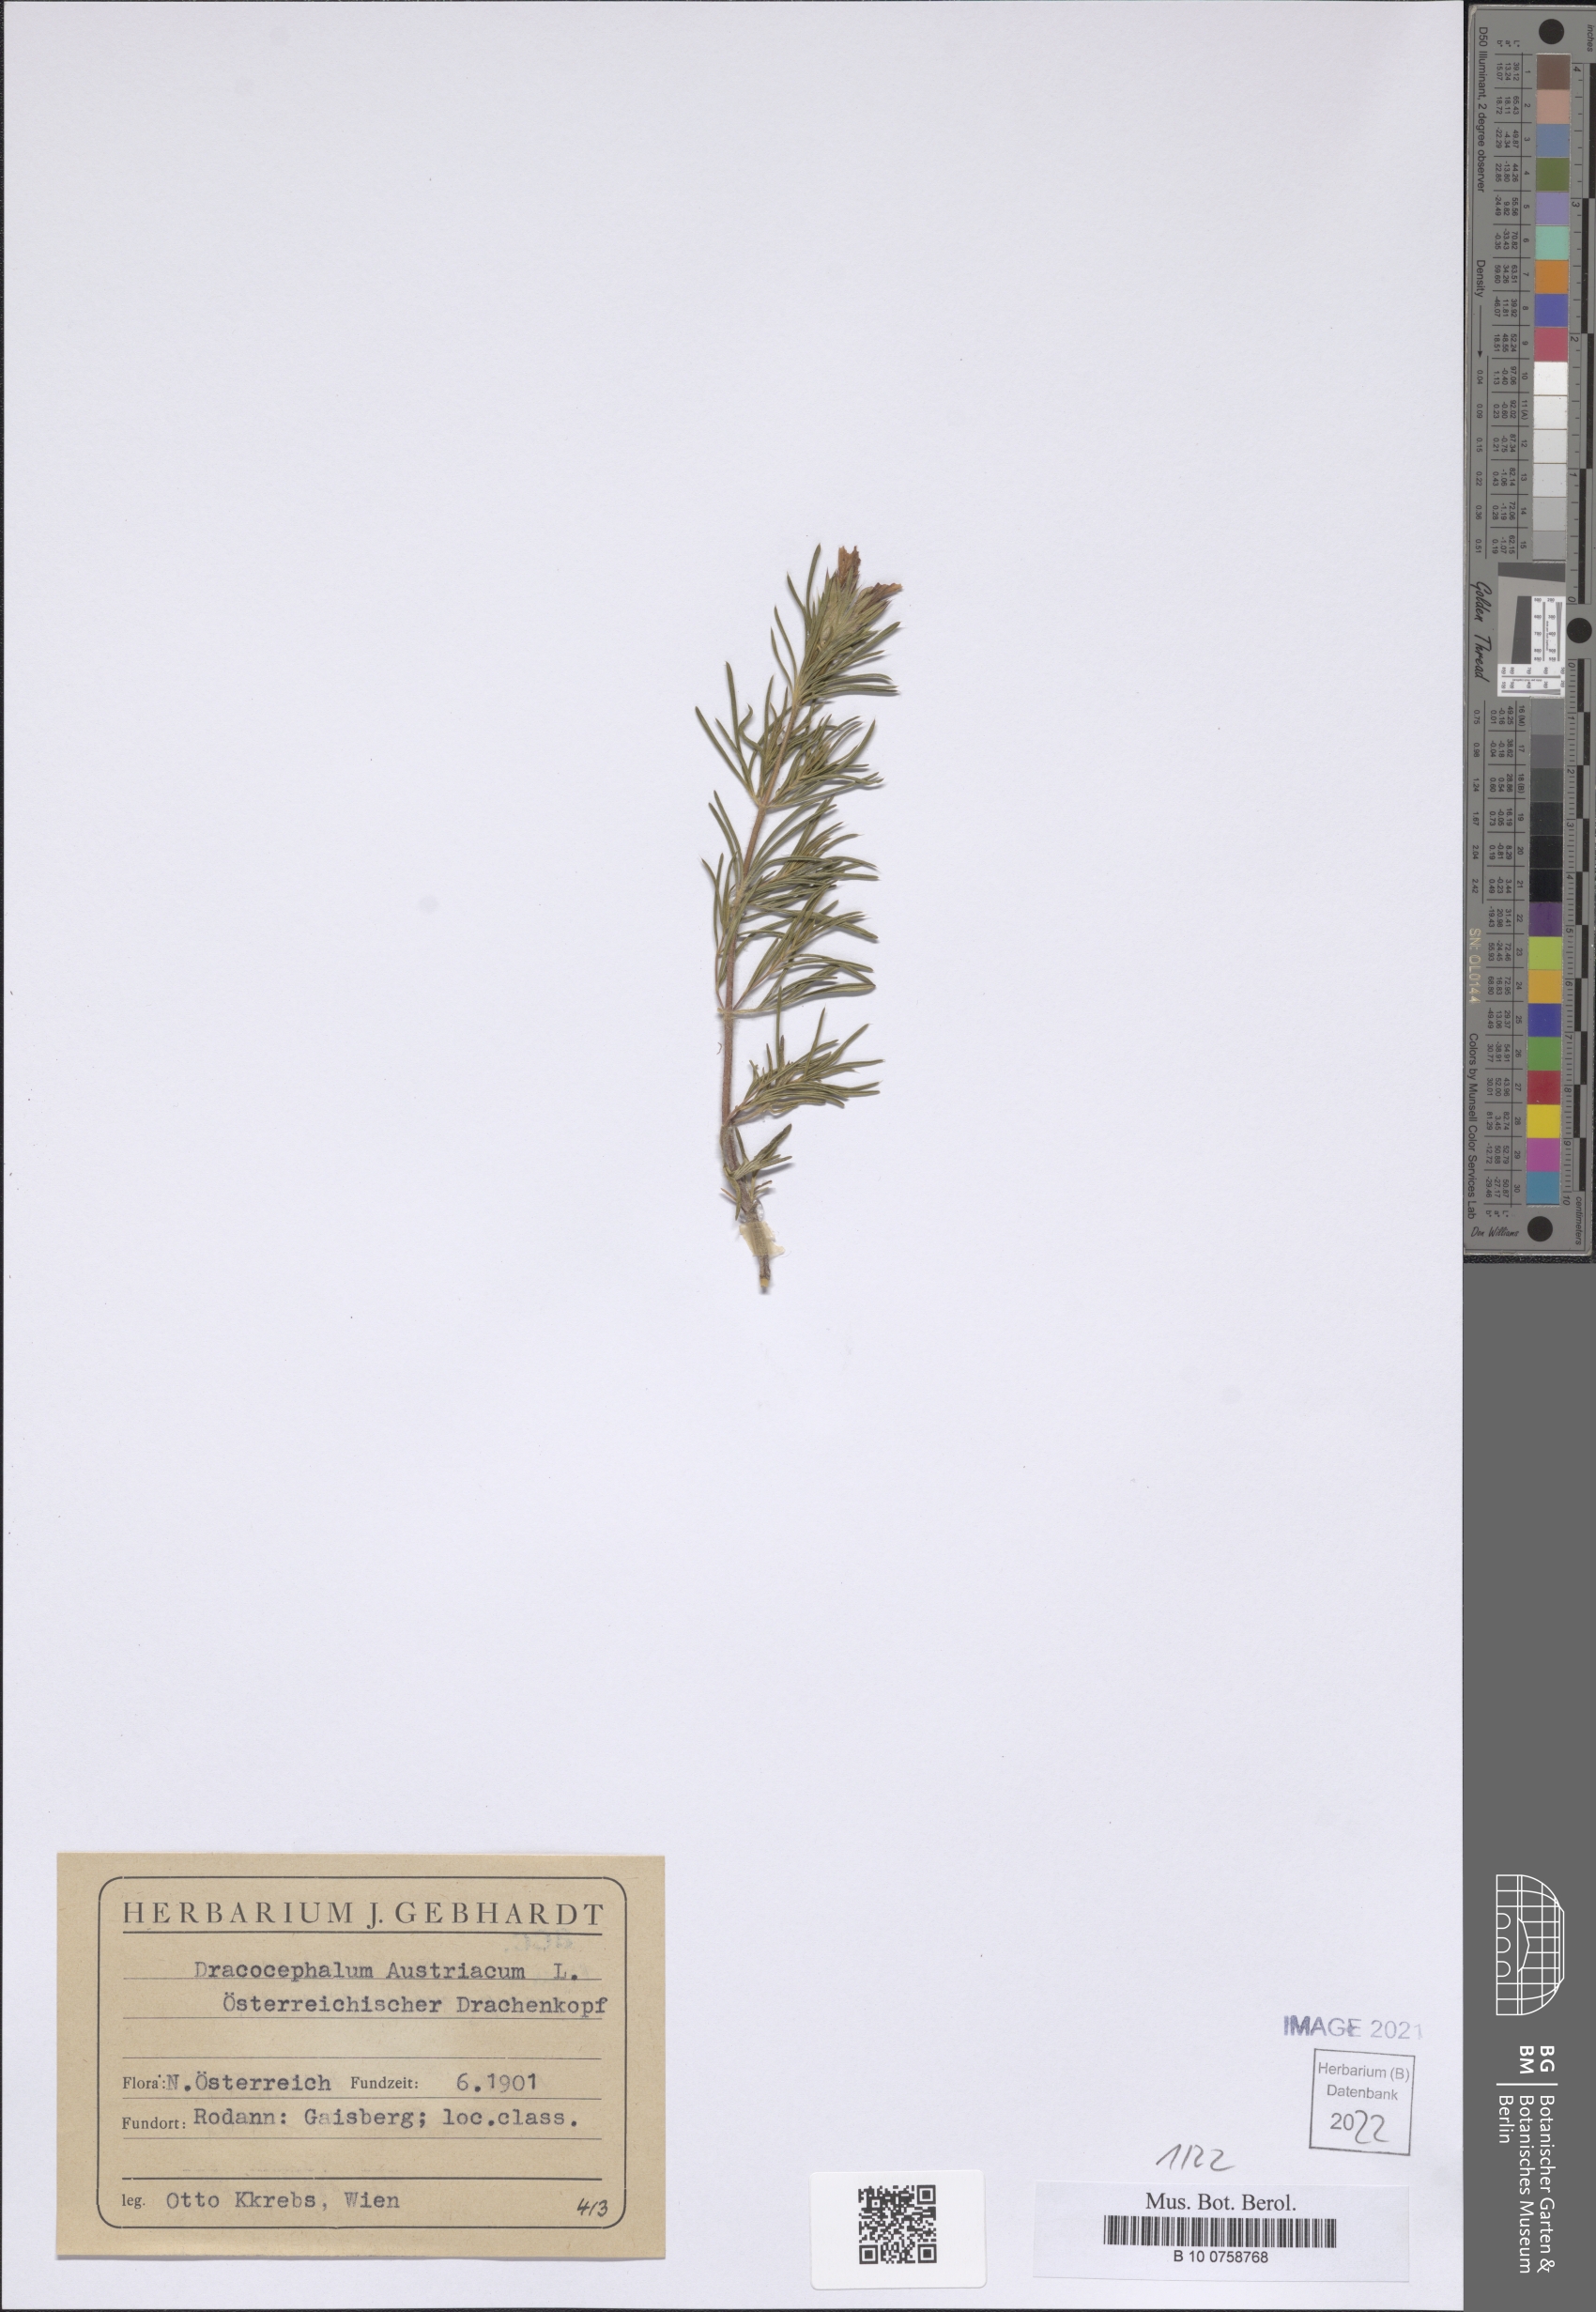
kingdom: Plantae
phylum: Tracheophyta
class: Magnoliopsida
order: Lamiales
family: Lamiaceae
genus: Dracocephalum
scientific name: Dracocephalum austriacum
